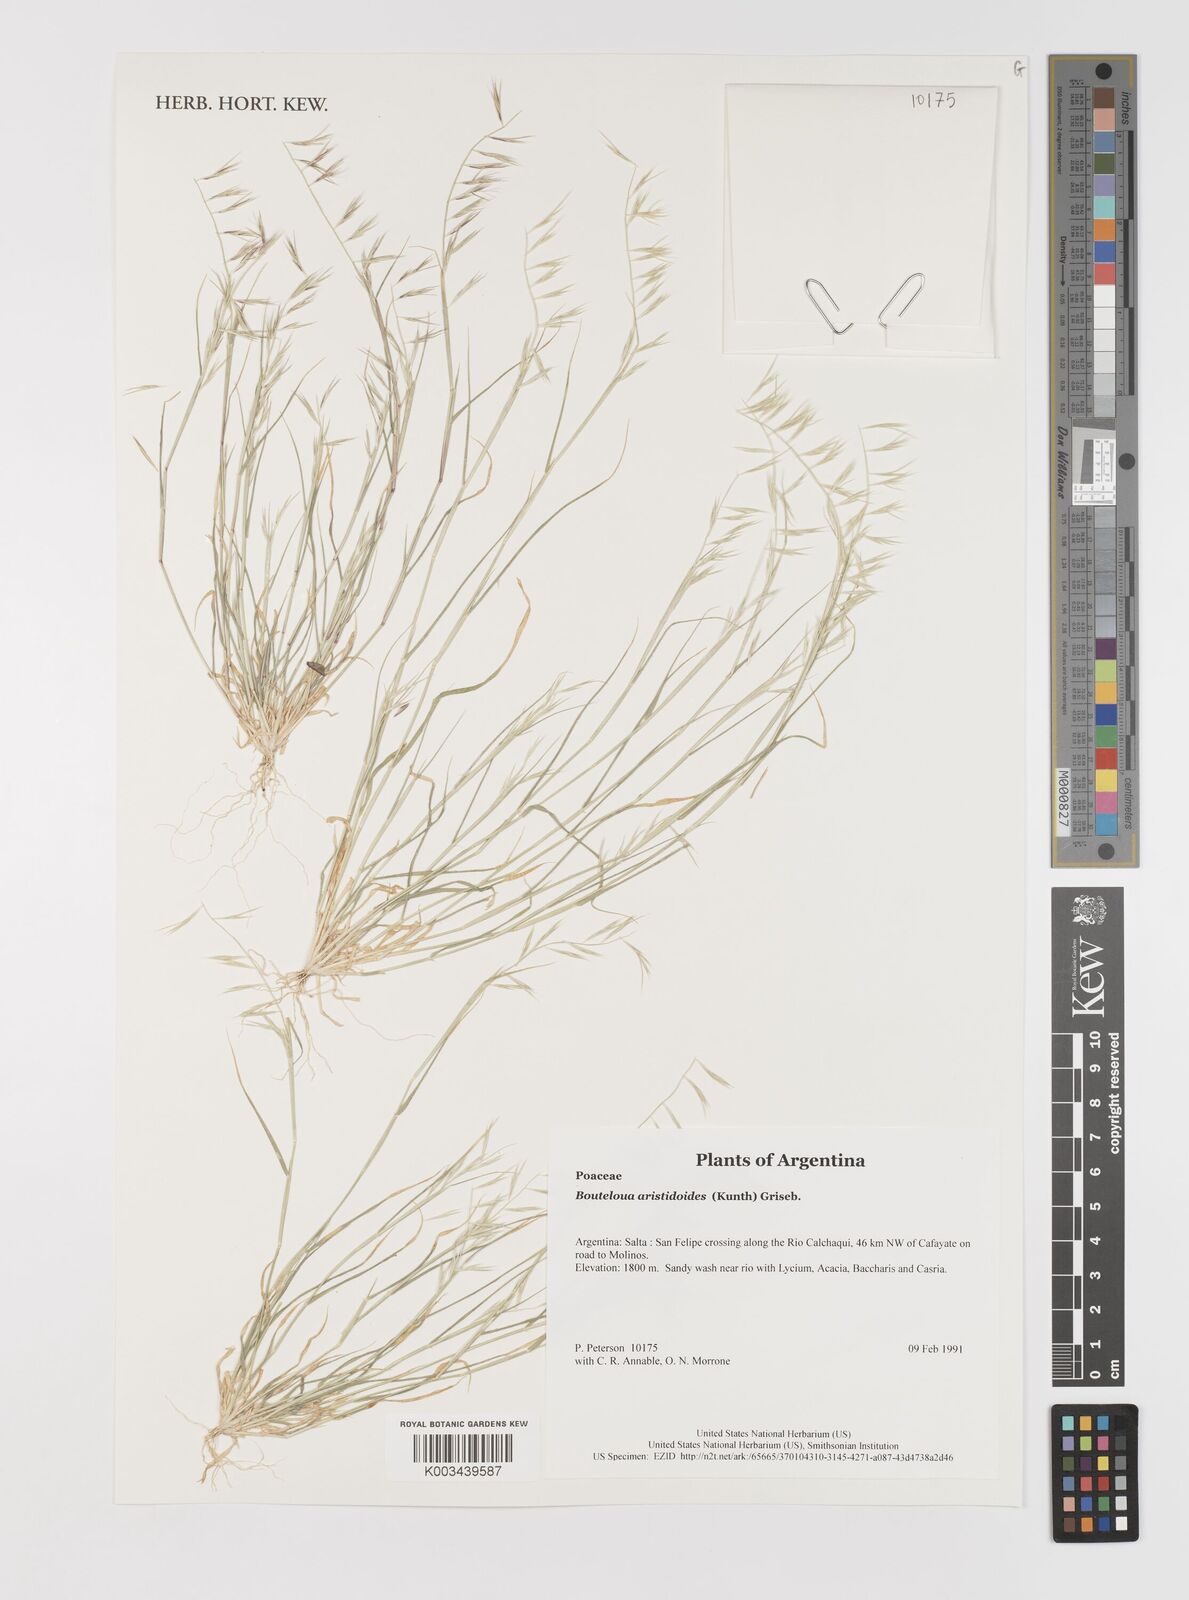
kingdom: Plantae
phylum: Tracheophyta
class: Liliopsida
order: Poales
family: Poaceae
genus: Bouteloua
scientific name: Bouteloua
